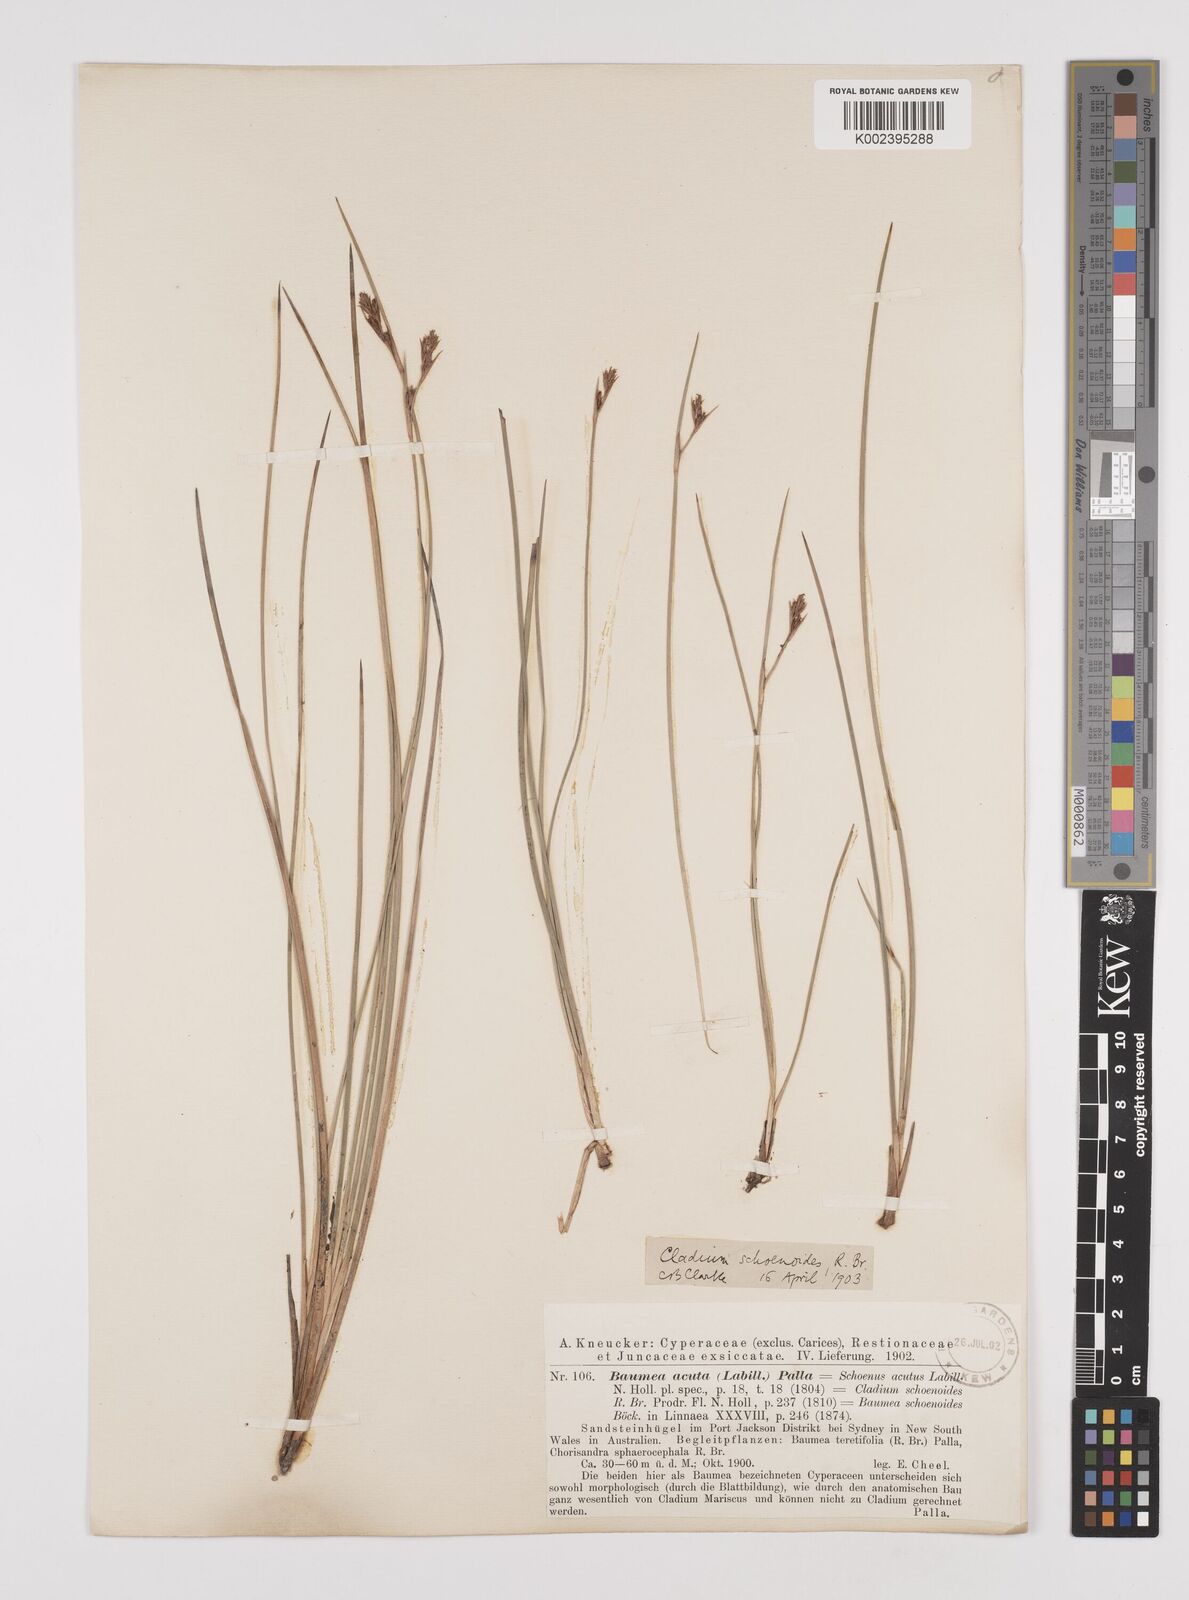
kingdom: Plantae
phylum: Tracheophyta
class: Liliopsida
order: Poales
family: Cyperaceae
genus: Machaerina
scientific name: Machaerina acuta
